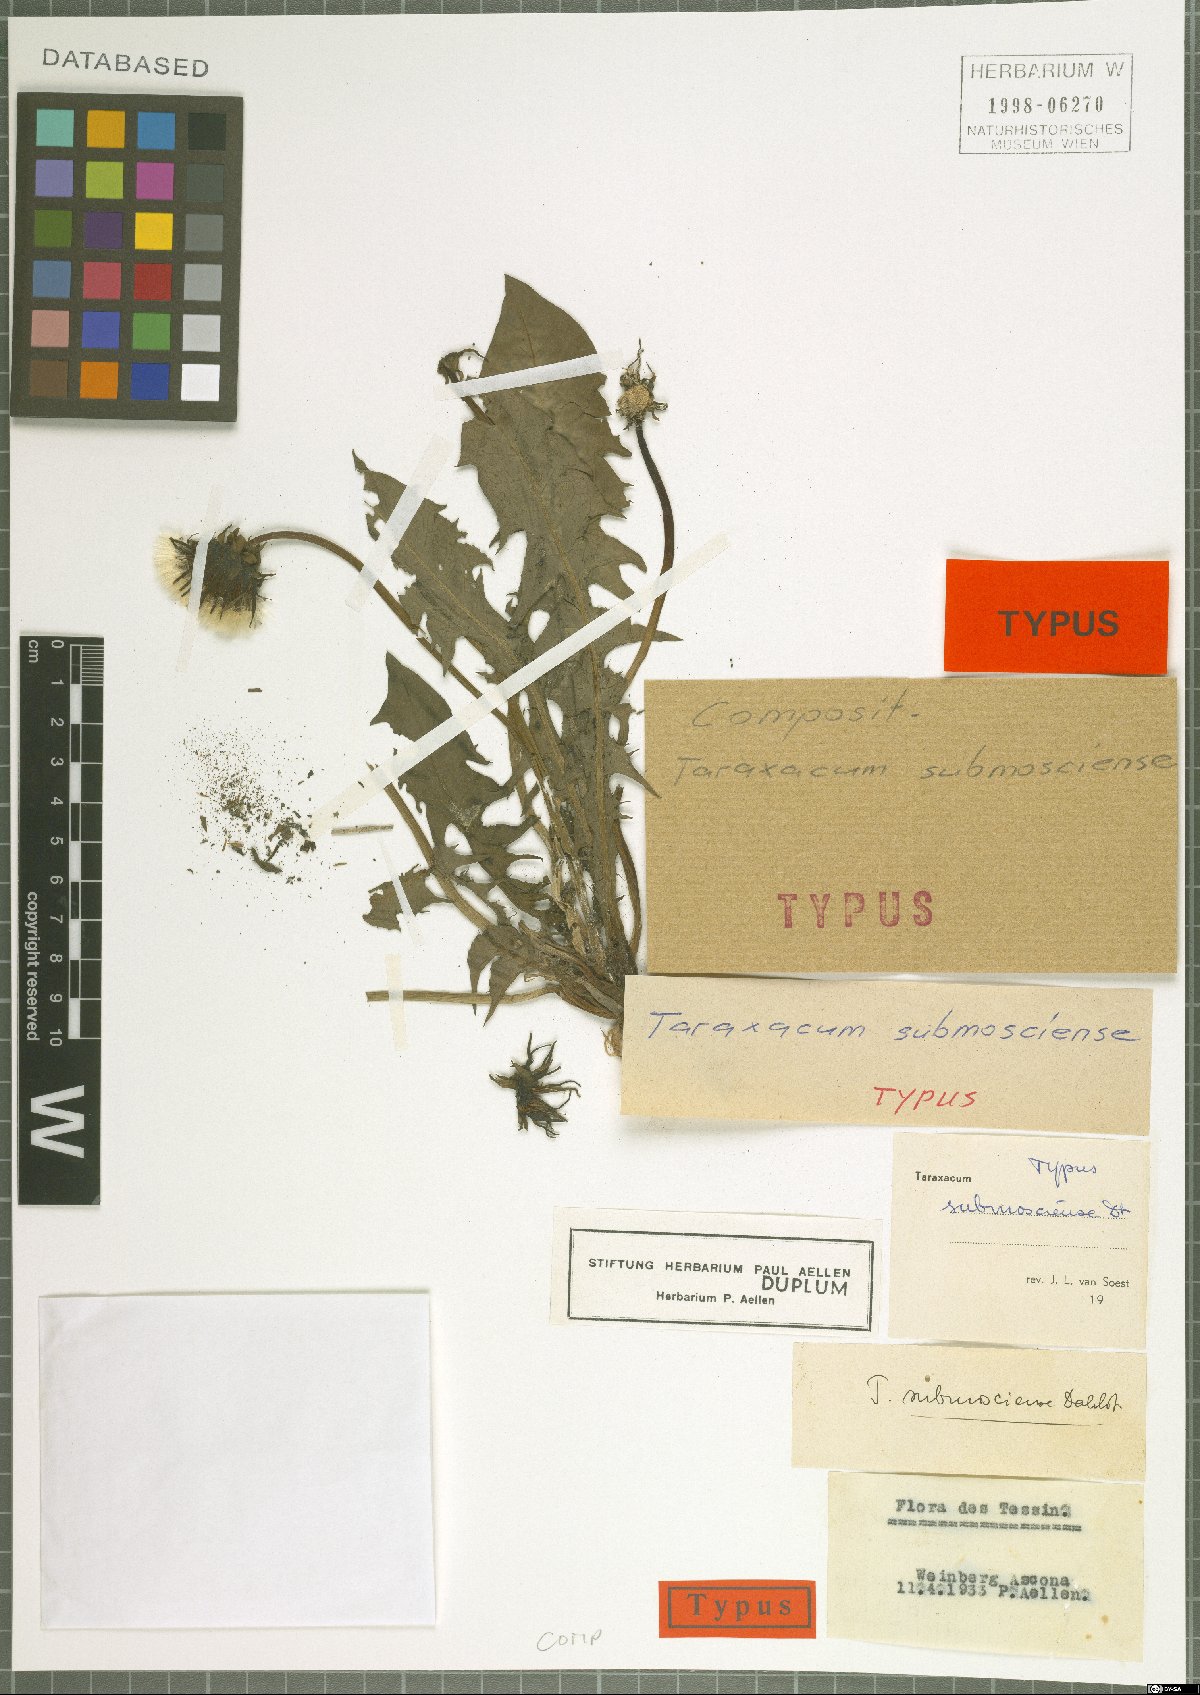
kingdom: Plantae
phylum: Tracheophyta
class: Magnoliopsida
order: Asterales
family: Asteraceae
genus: Taraxacum
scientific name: Taraxacum submosciense
